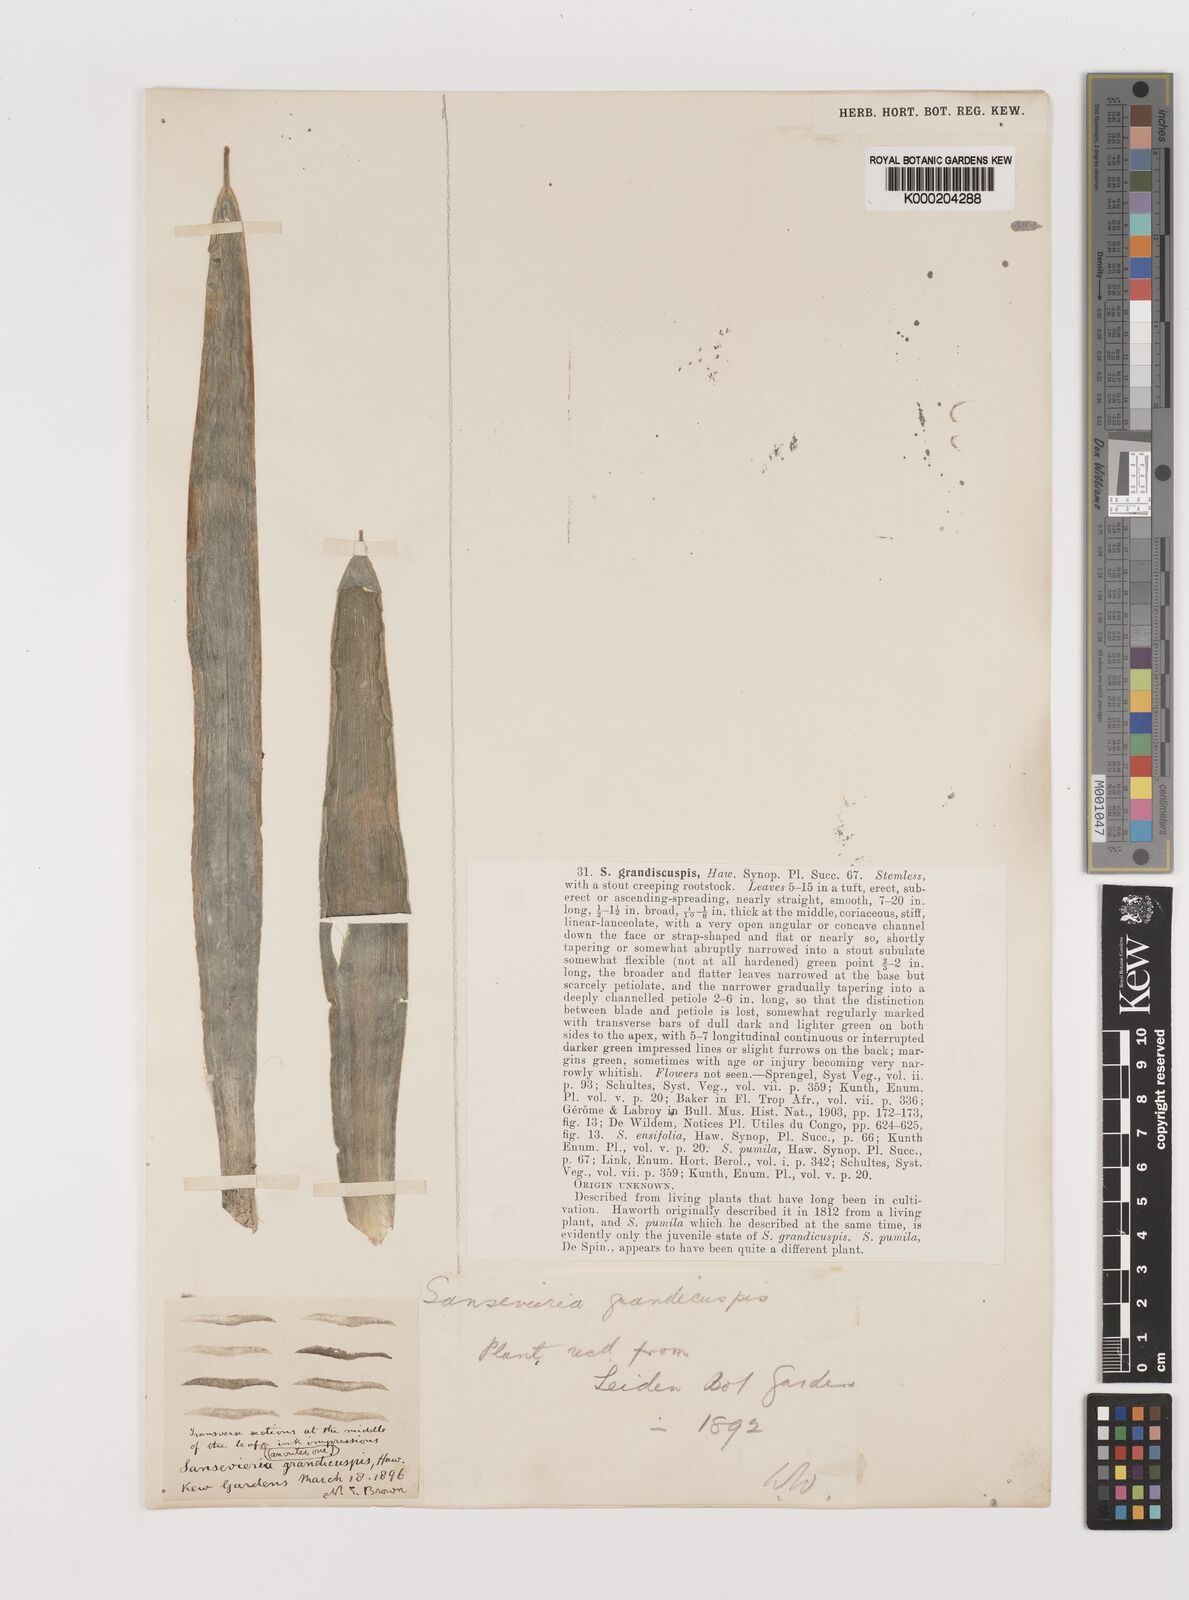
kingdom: Plantae
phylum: Tracheophyta
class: Liliopsida
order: Asparagales
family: Asparagaceae
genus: Dracaena
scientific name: Dracaena zeylanica
